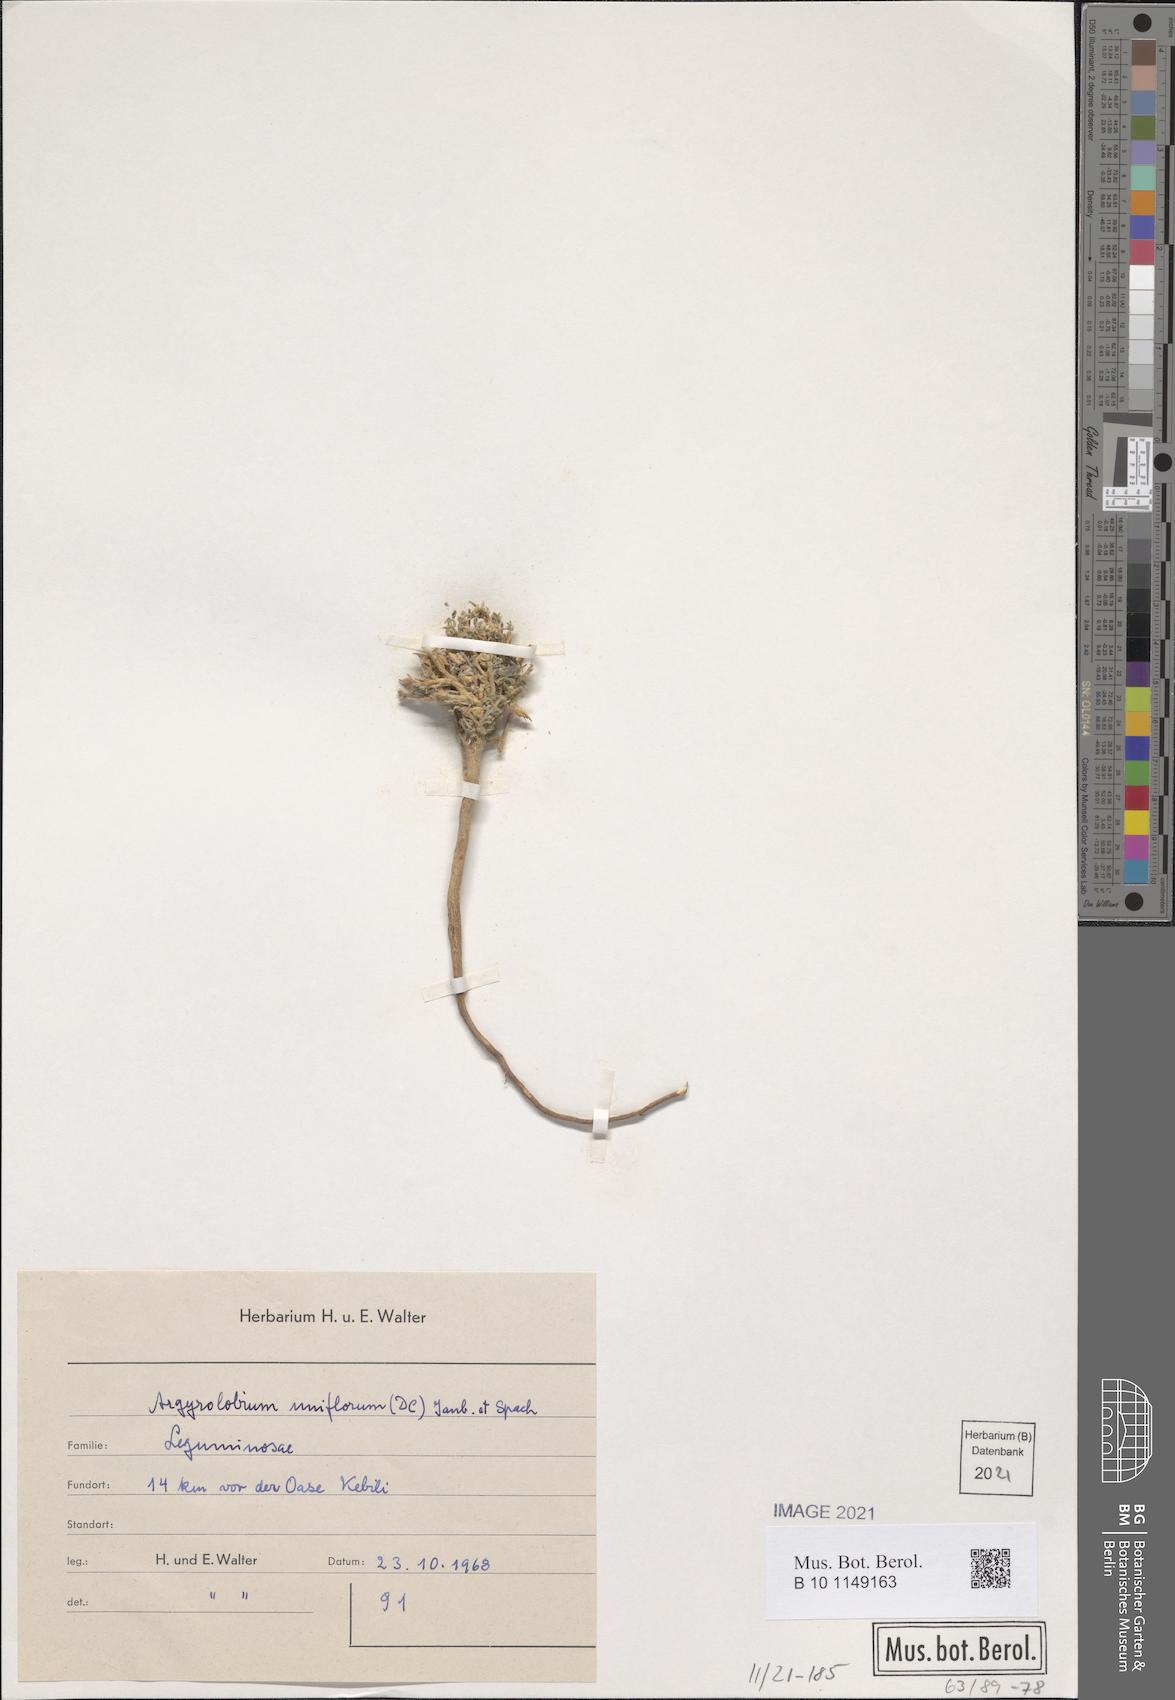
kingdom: Plantae
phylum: Tracheophyta
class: Magnoliopsida
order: Fabales
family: Fabaceae
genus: Argyrolobium
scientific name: Argyrolobium uniflorum
